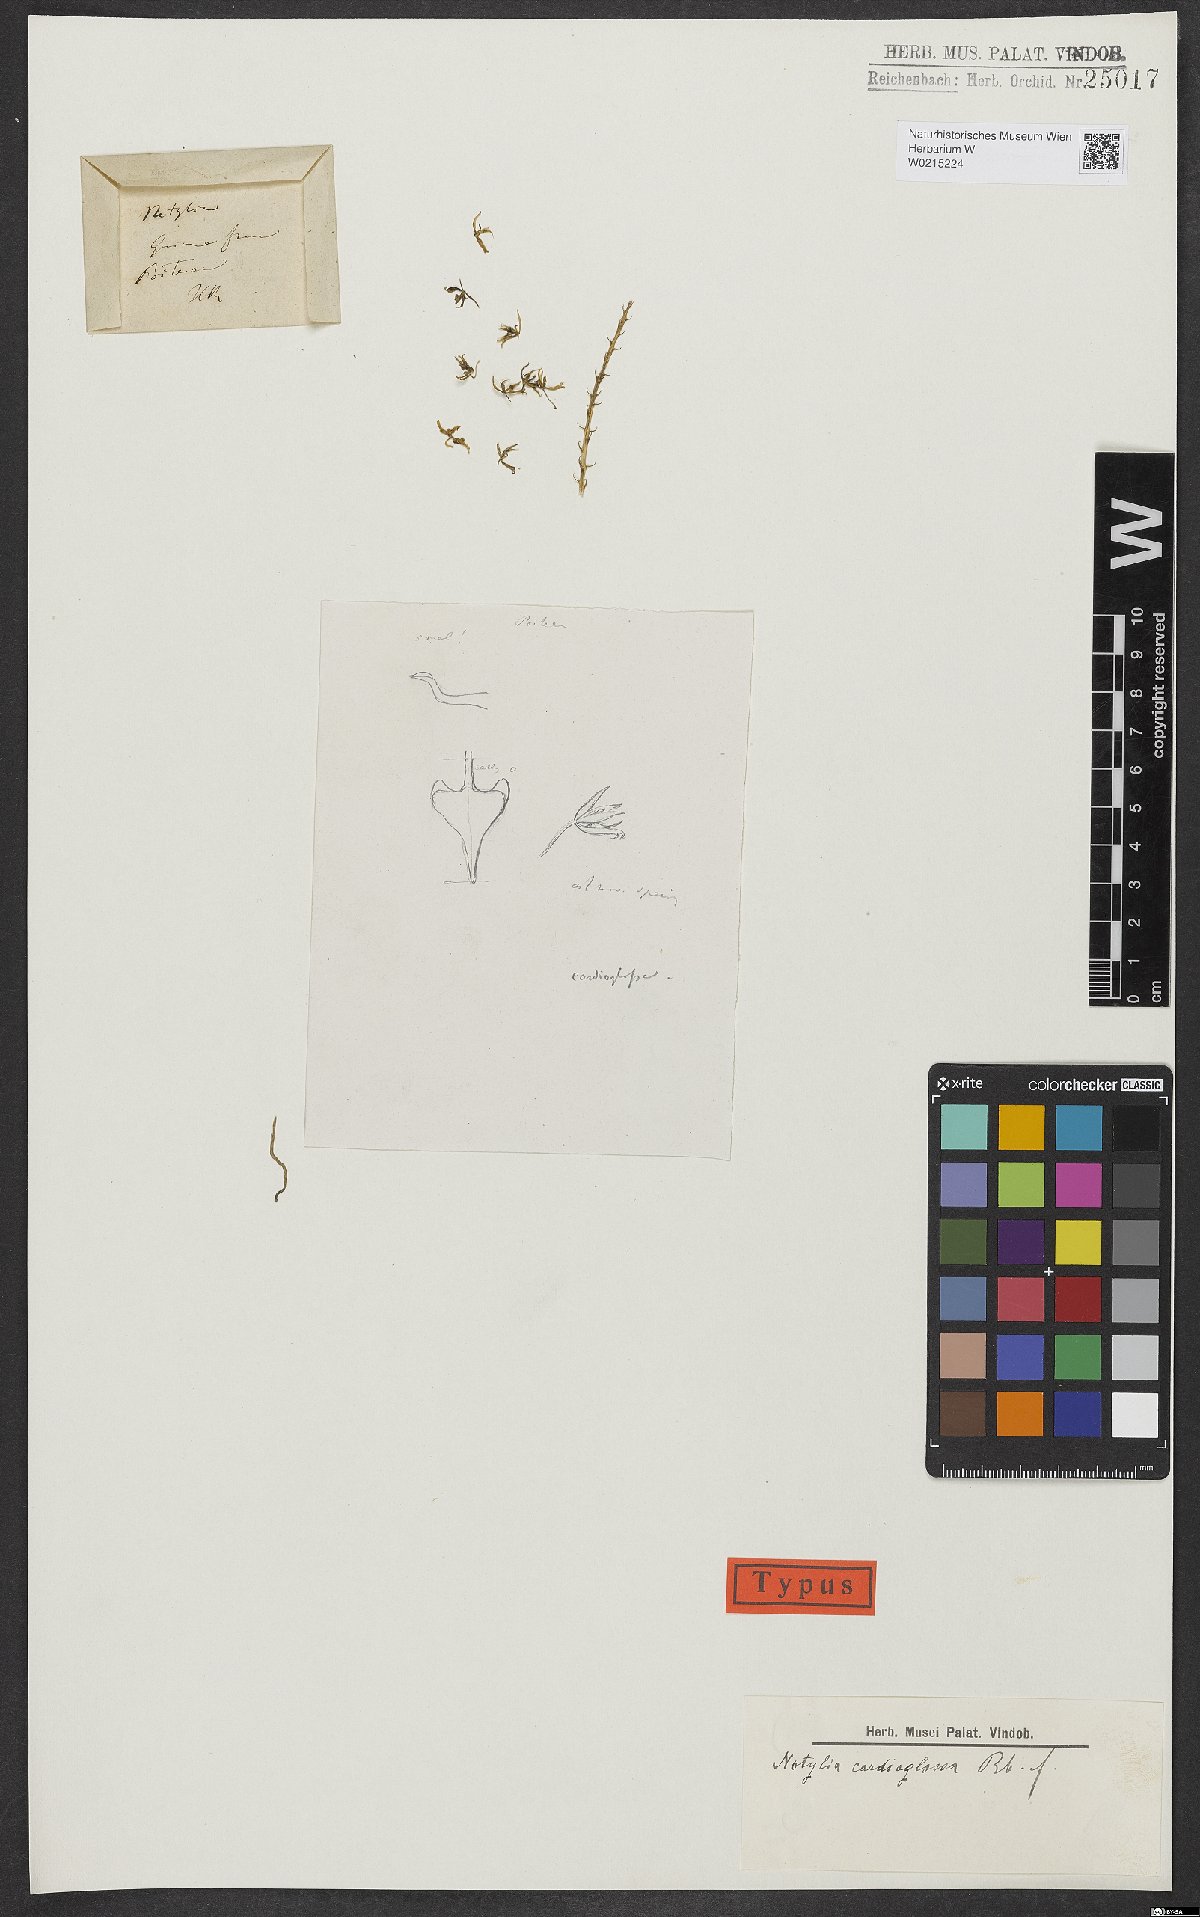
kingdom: Plantae
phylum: Tracheophyta
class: Liliopsida
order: Asparagales
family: Orchidaceae
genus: Notylia
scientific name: Notylia fragrans
